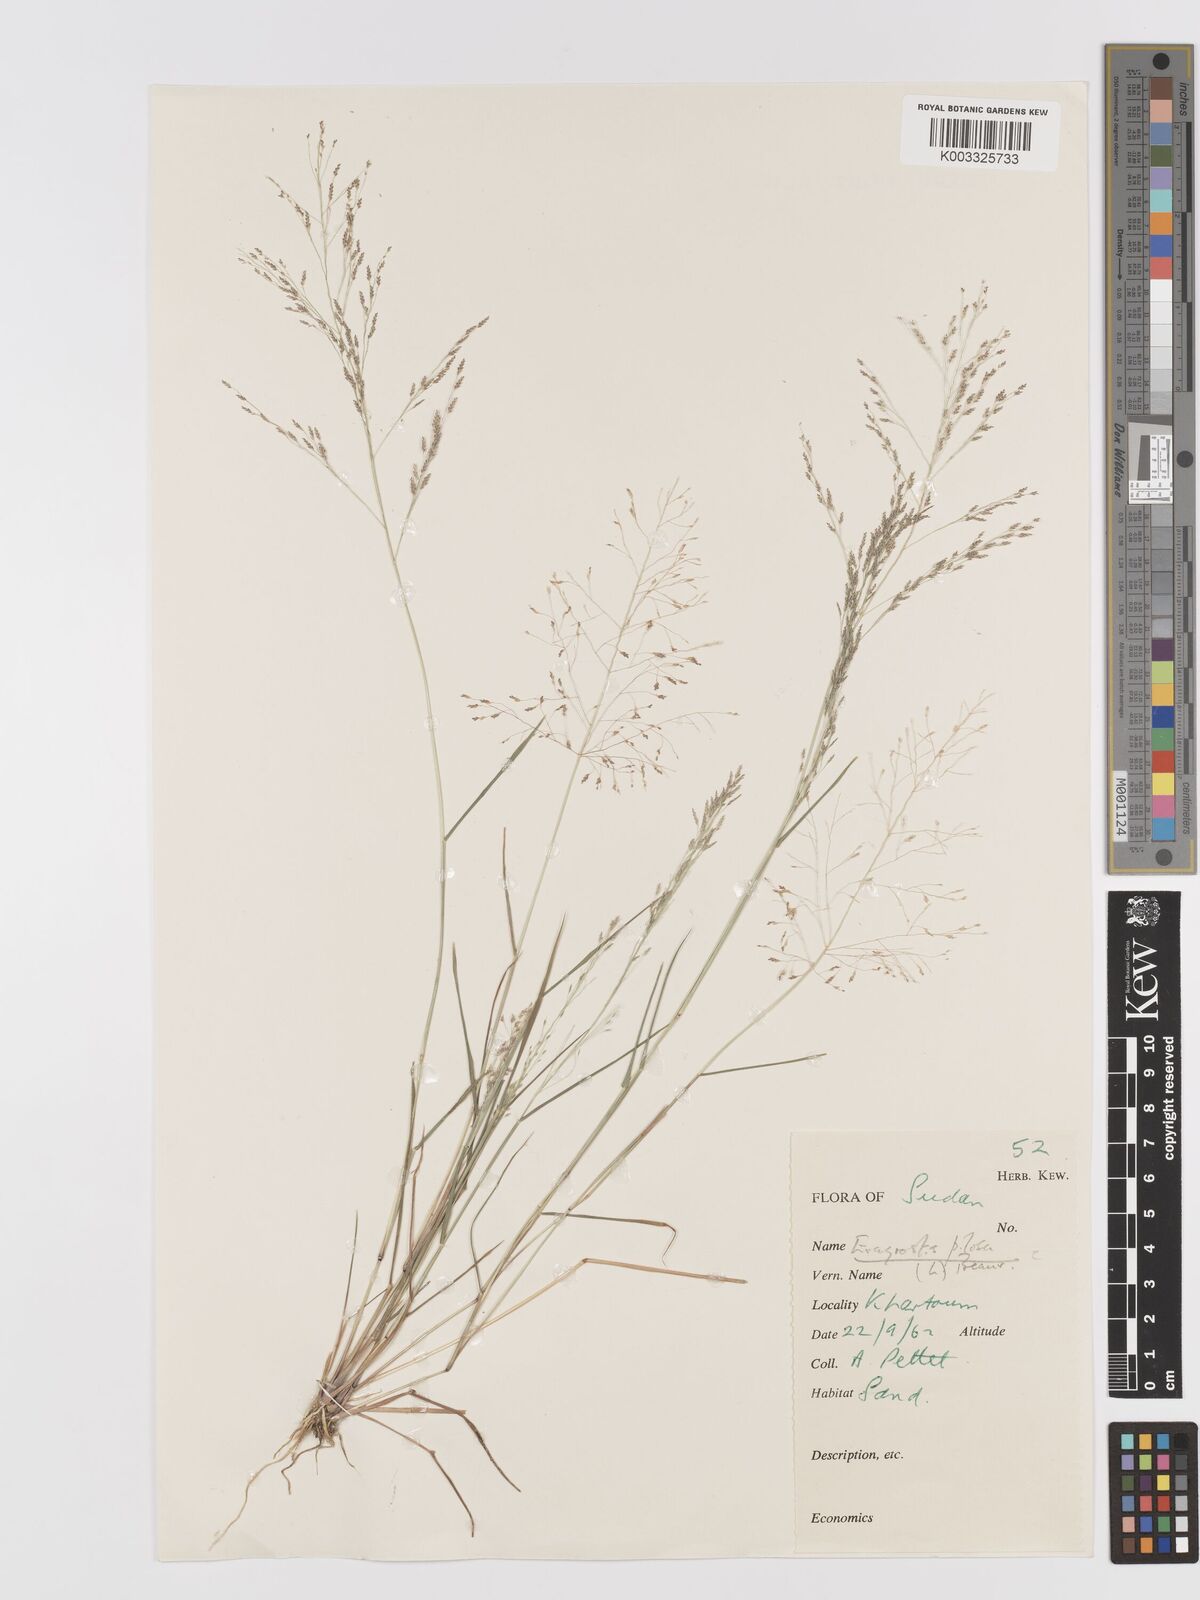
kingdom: Plantae
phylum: Tracheophyta
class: Liliopsida
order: Poales
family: Poaceae
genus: Eragrostis
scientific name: Eragrostis pilosa
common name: Indian lovegrass
